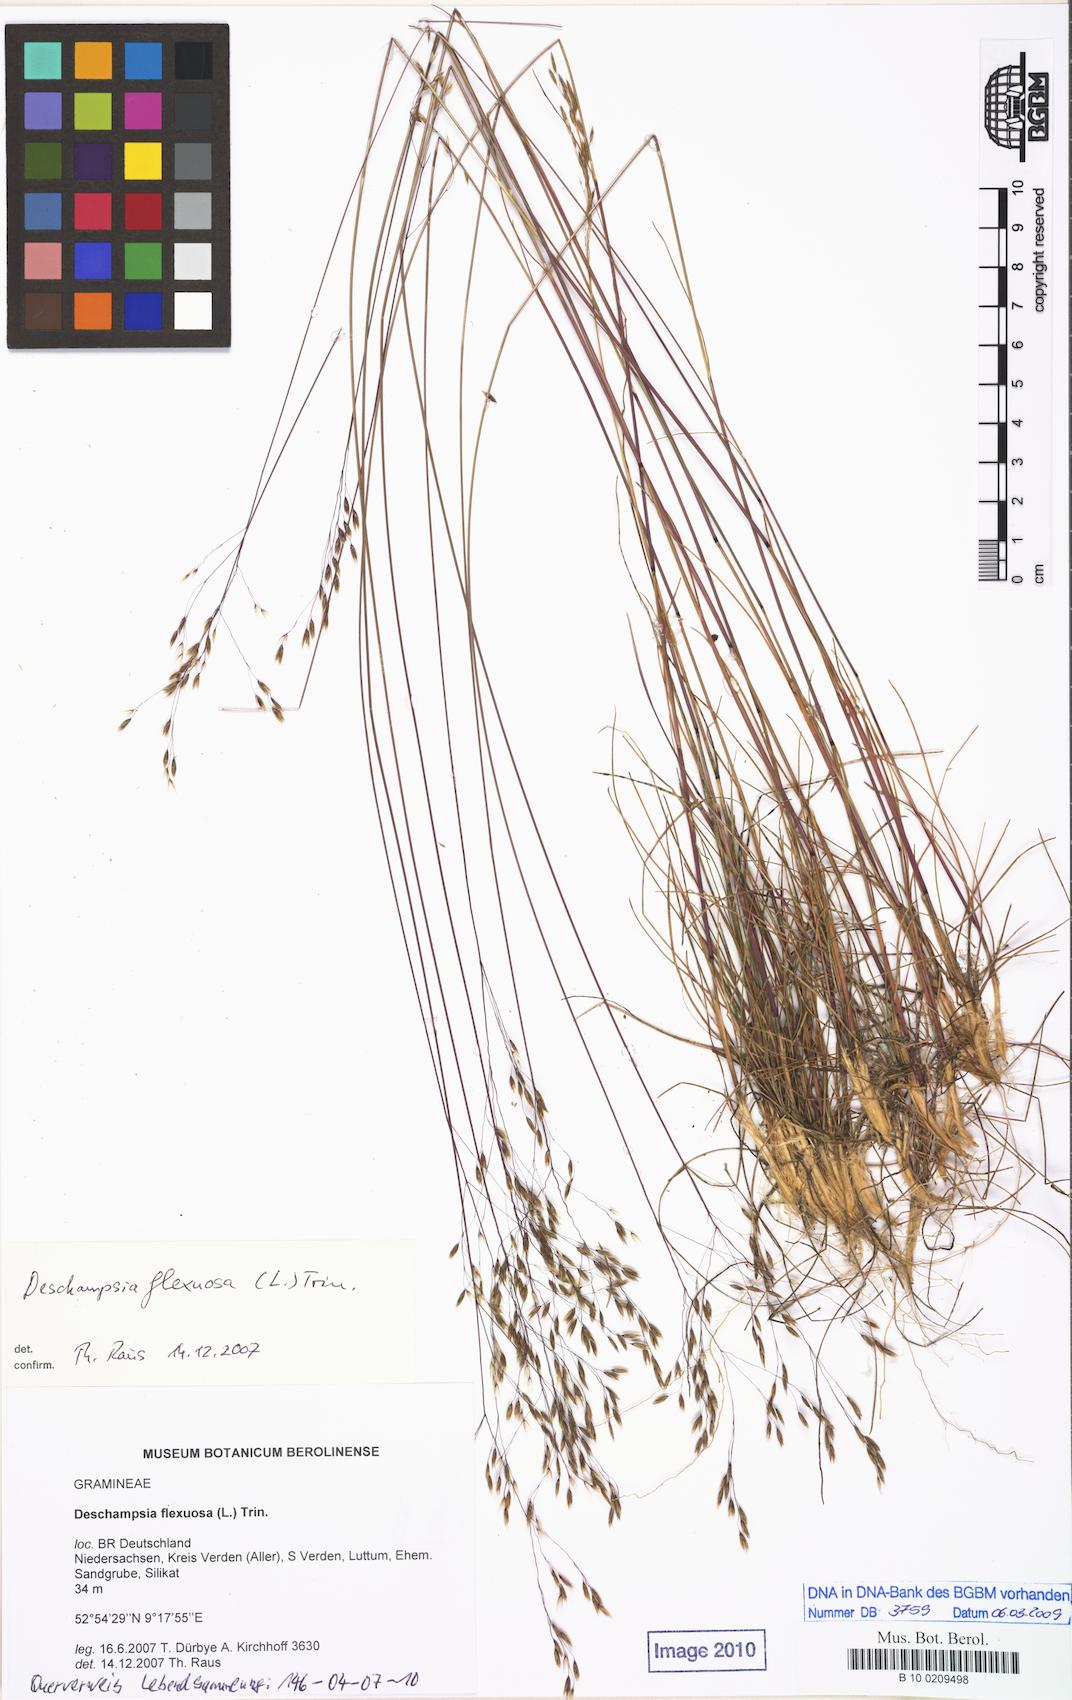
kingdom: Plantae
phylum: Tracheophyta
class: Liliopsida
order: Poales
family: Poaceae
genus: Avenella
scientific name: Avenella flexuosa
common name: Wavy hairgrass
